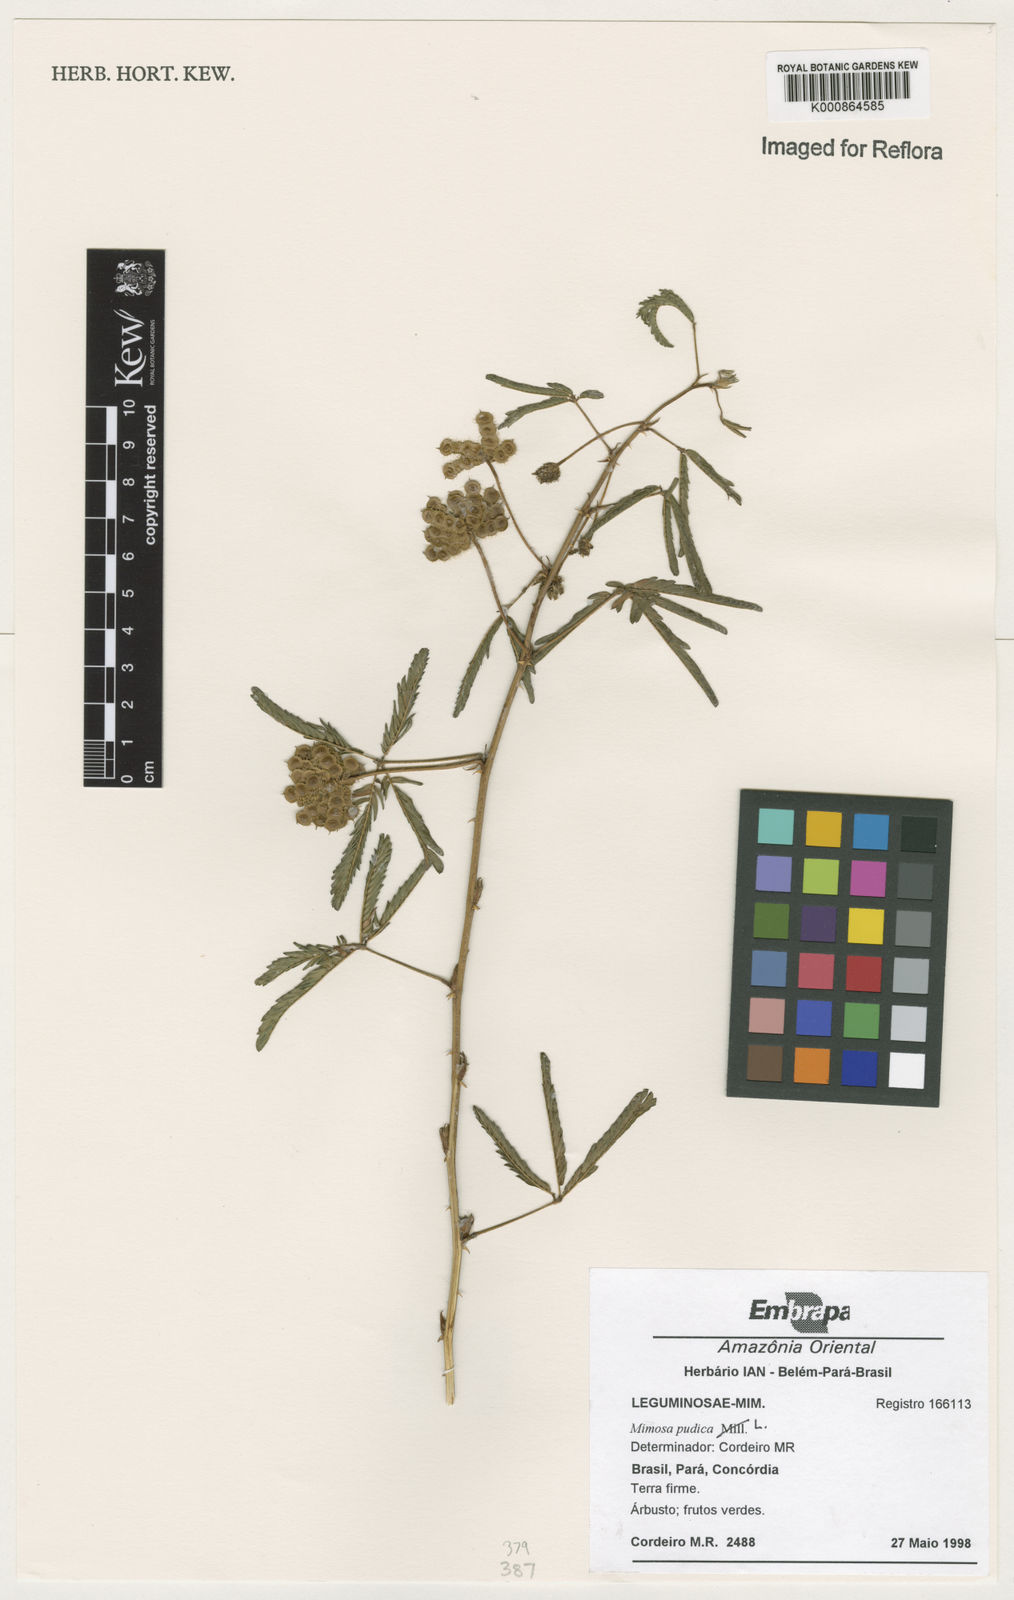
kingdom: Plantae
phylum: Tracheophyta
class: Magnoliopsida
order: Fabales
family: Fabaceae
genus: Mimosa
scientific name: Mimosa pudica
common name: Sensitive plant
